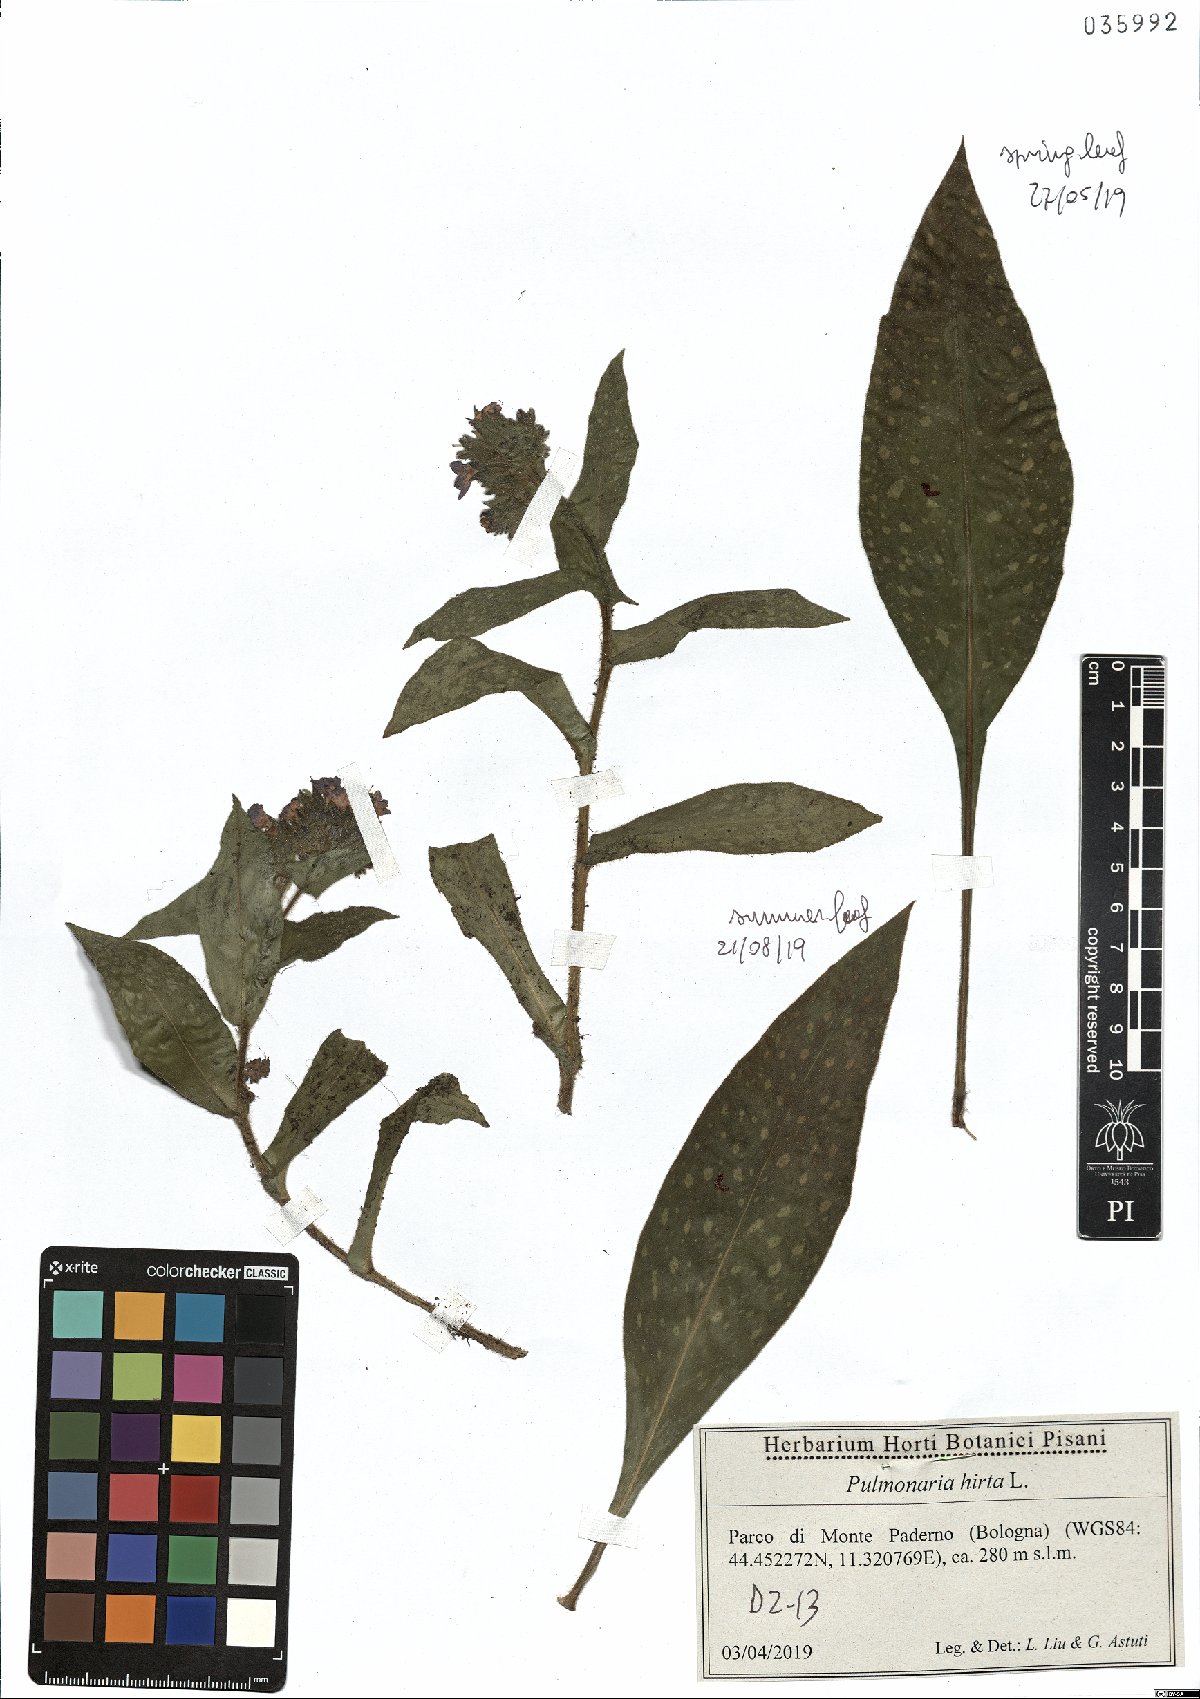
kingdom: Plantae
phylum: Tracheophyta
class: Magnoliopsida
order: Boraginales
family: Boraginaceae
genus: Pulmonaria
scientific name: Pulmonaria hirta
